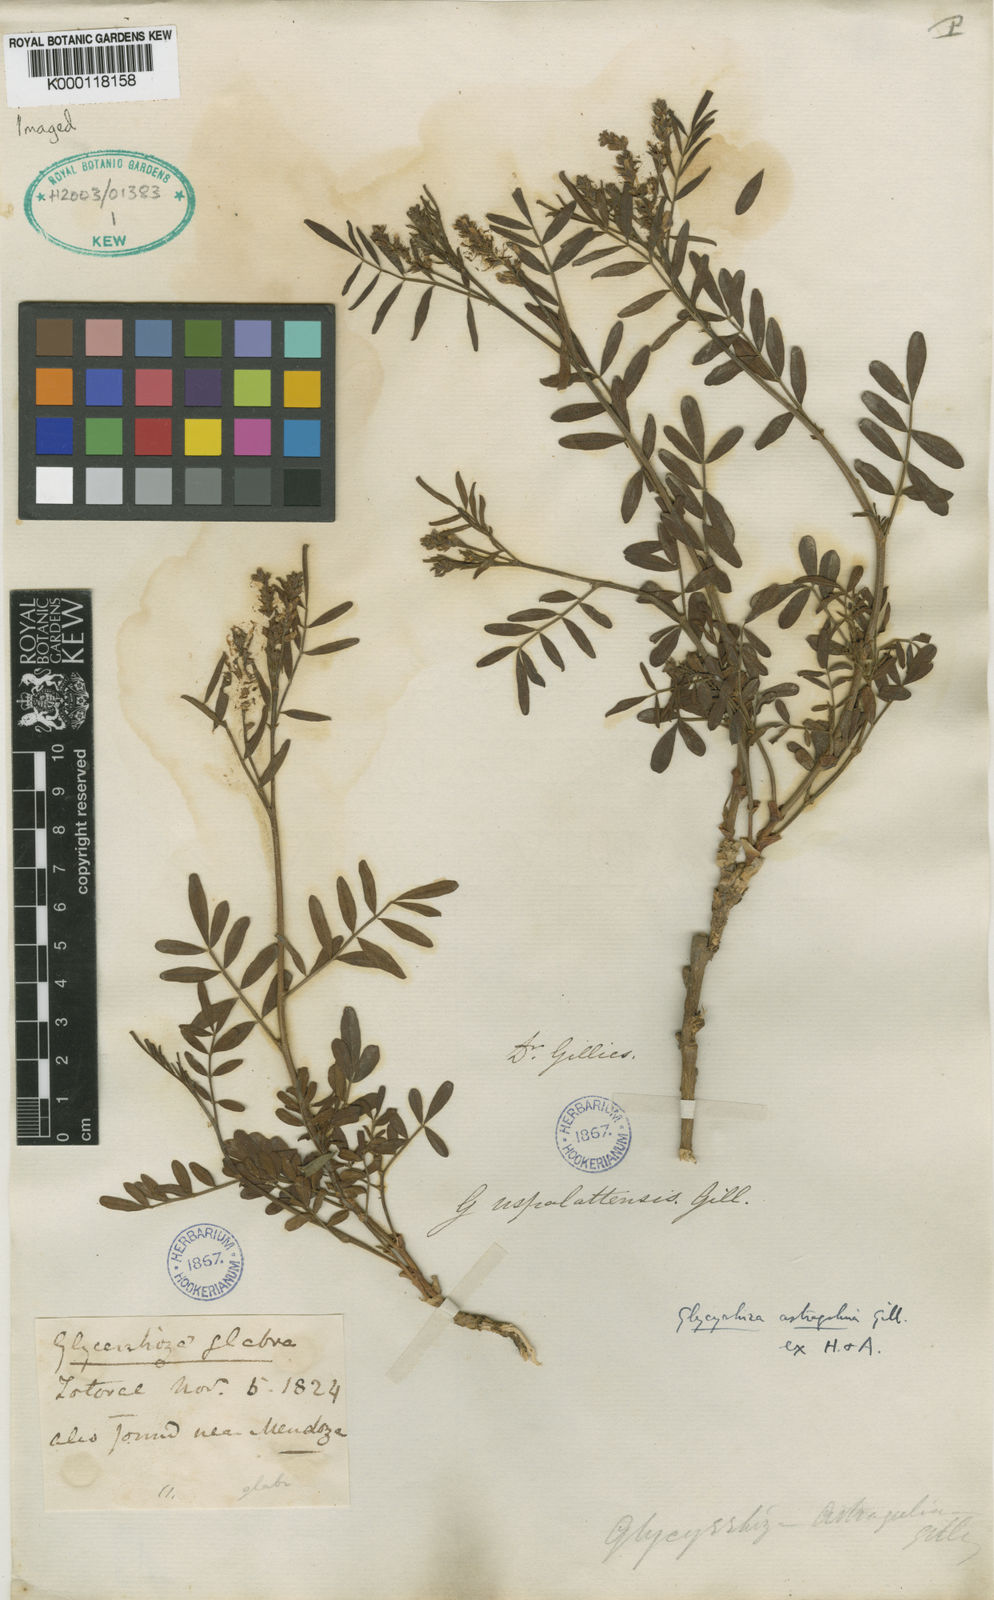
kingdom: Plantae
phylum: Tracheophyta
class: Magnoliopsida
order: Fabales
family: Fabaceae
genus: Glycyrrhiza
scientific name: Glycyrrhiza
